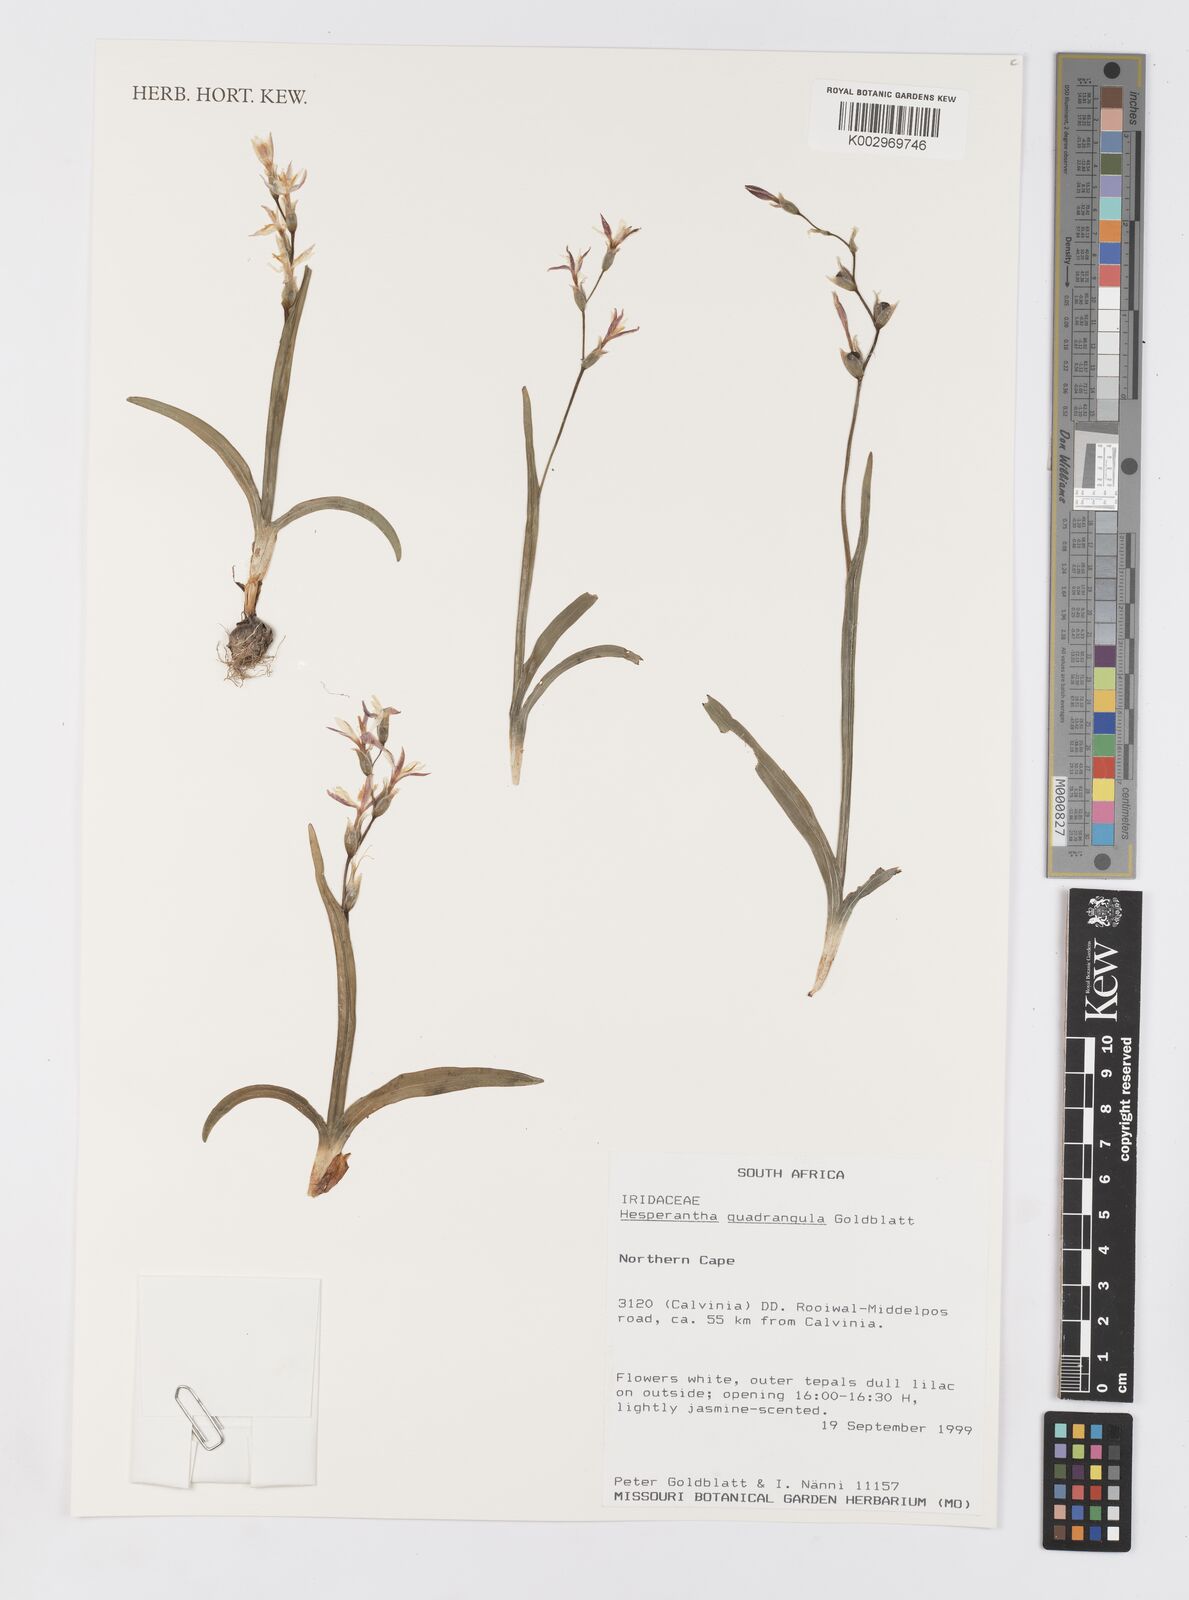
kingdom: Plantae
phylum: Tracheophyta
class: Liliopsida
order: Asparagales
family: Iridaceae
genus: Hesperantha
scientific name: Hesperantha quadrangula
